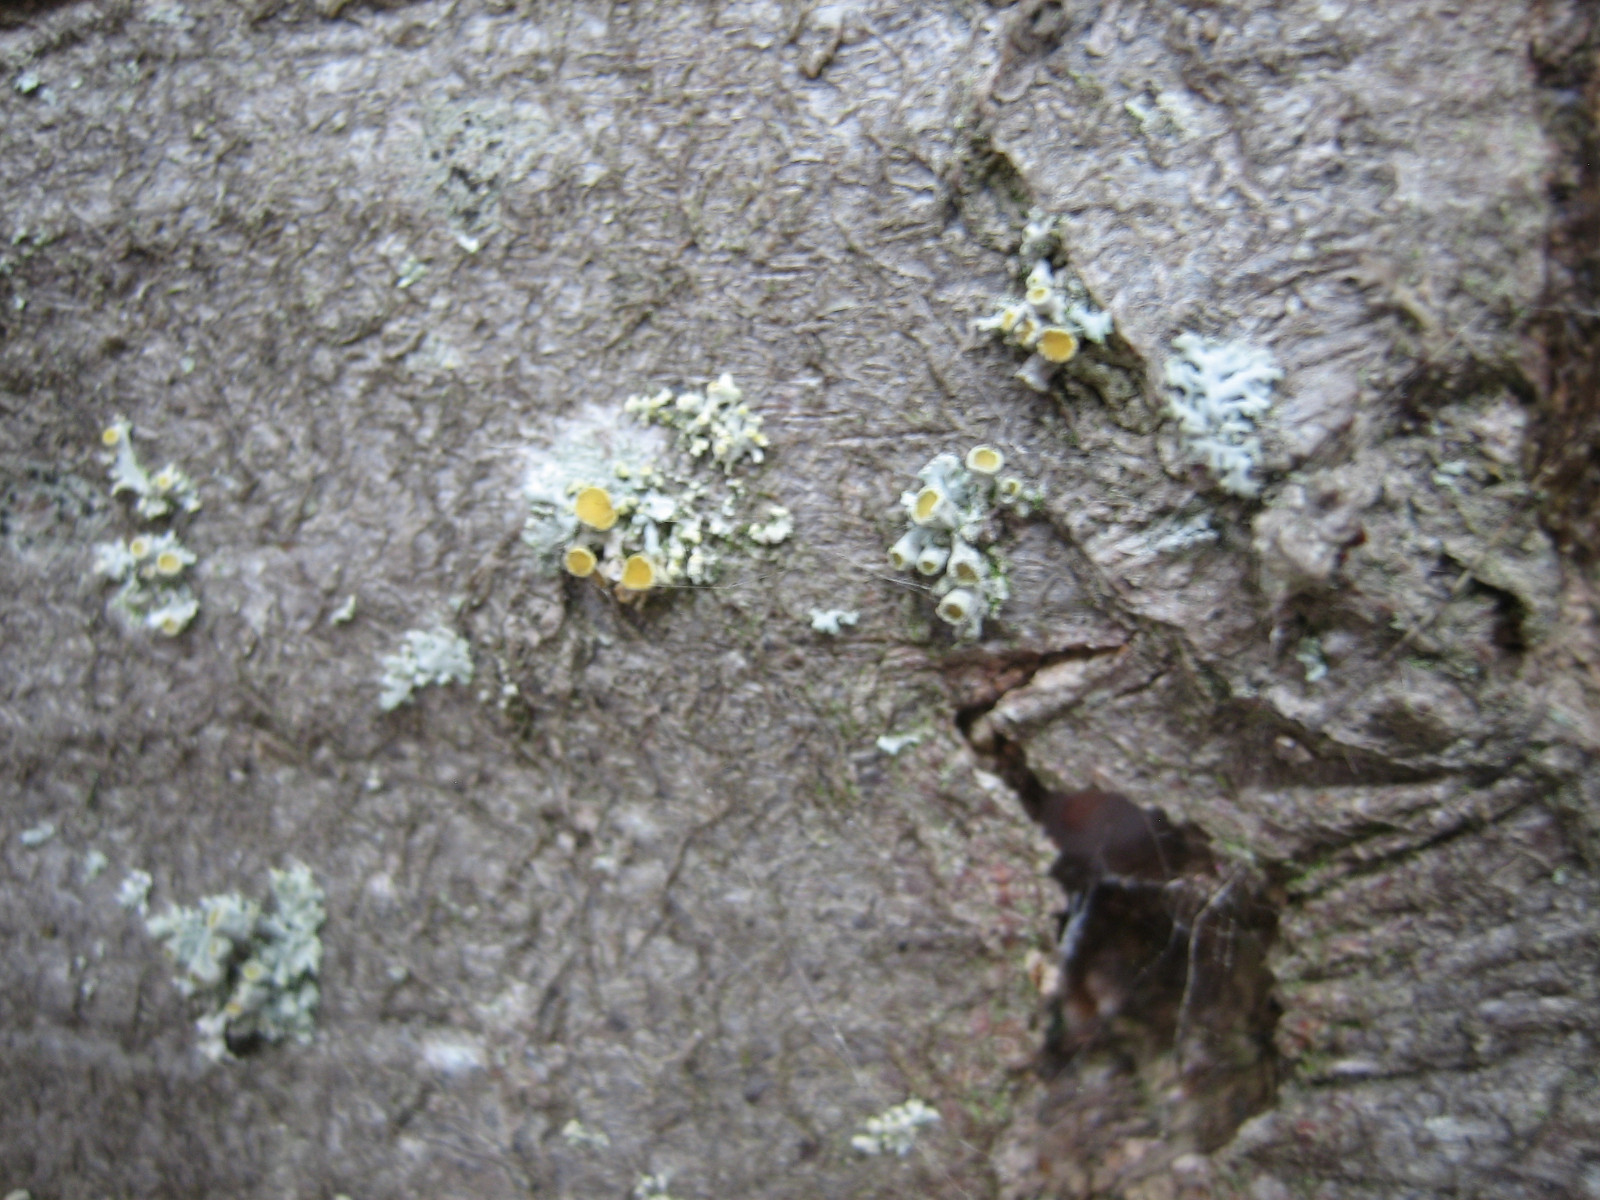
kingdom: Fungi
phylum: Ascomycota
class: Lecanoromycetes
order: Teloschistales
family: Teloschistaceae
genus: Polycauliona
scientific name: Polycauliona polycarpa
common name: mangefrugtet orangelav
